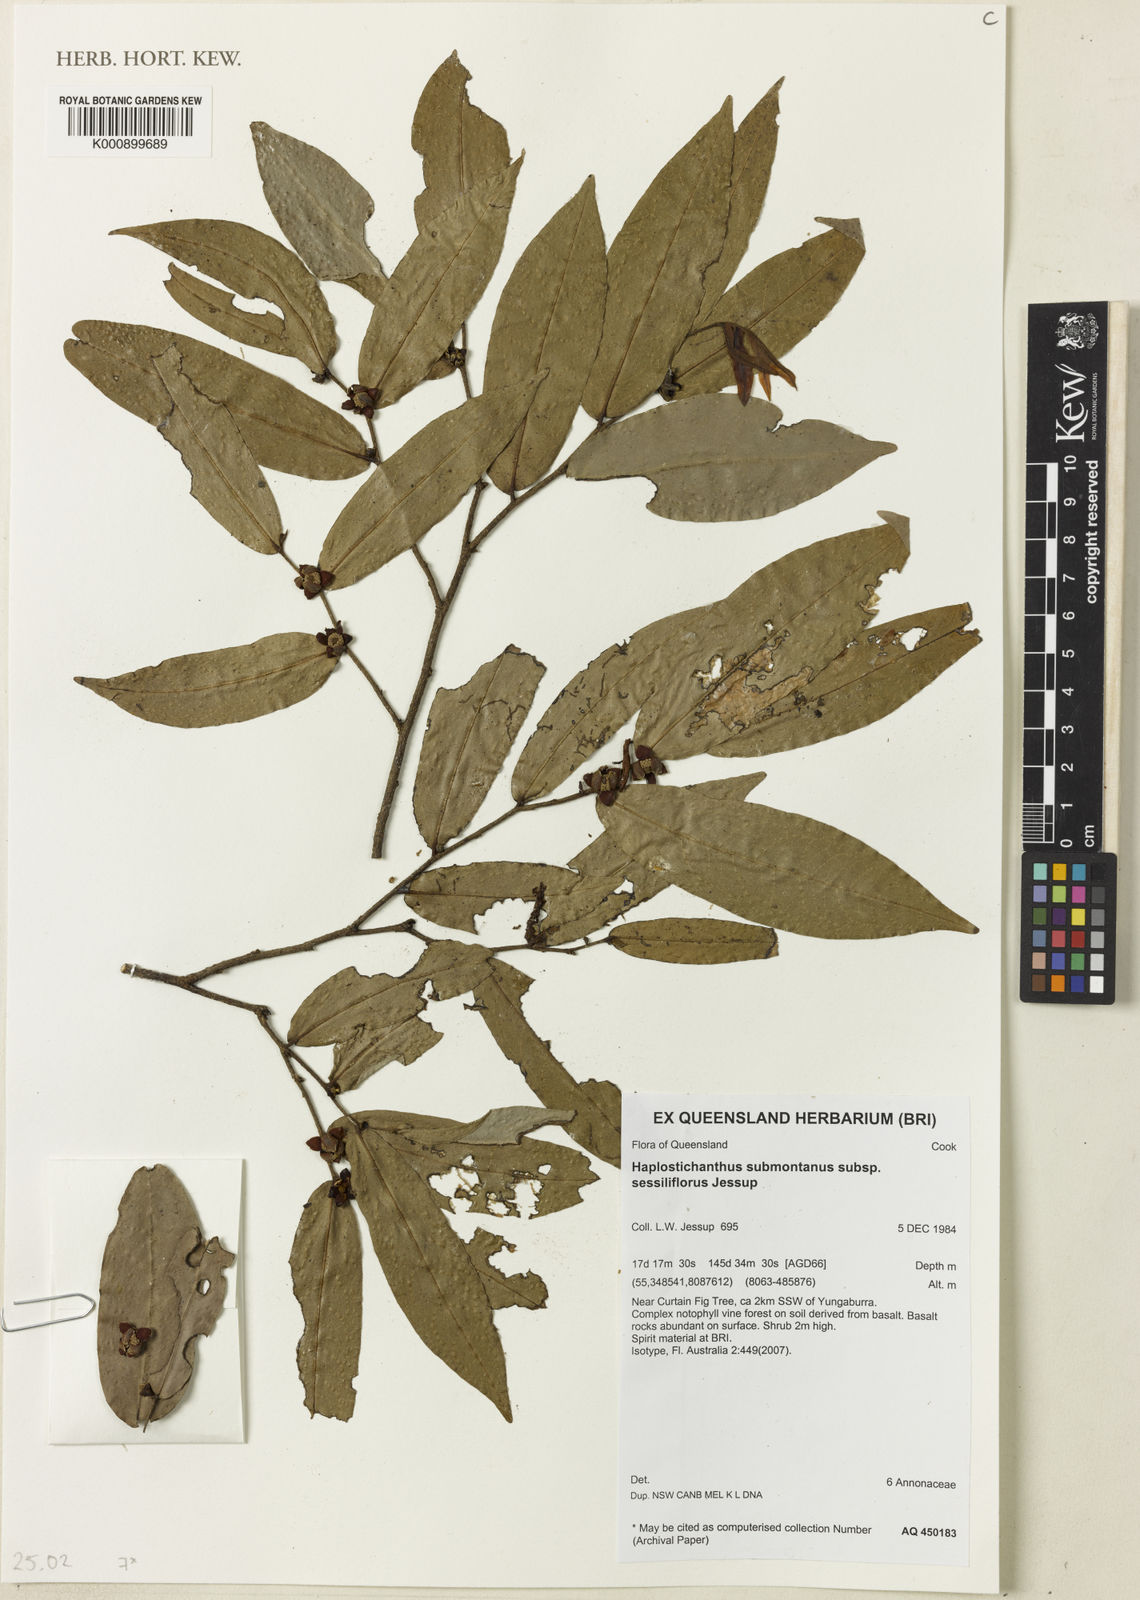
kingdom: Plantae
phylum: Tracheophyta
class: Magnoliopsida
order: Magnoliales
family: Annonaceae
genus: Haplostichanthus
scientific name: Haplostichanthus submontanus
